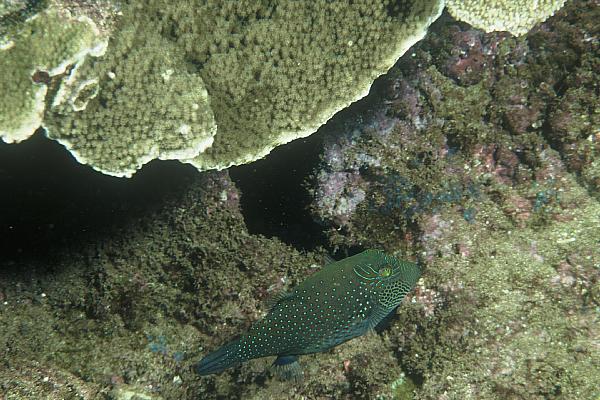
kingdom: Animalia
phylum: Chordata
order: Tetraodontiformes
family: Tetraodontidae
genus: Canthigaster
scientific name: Canthigaster amboinensis
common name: Ambon pufferfish
